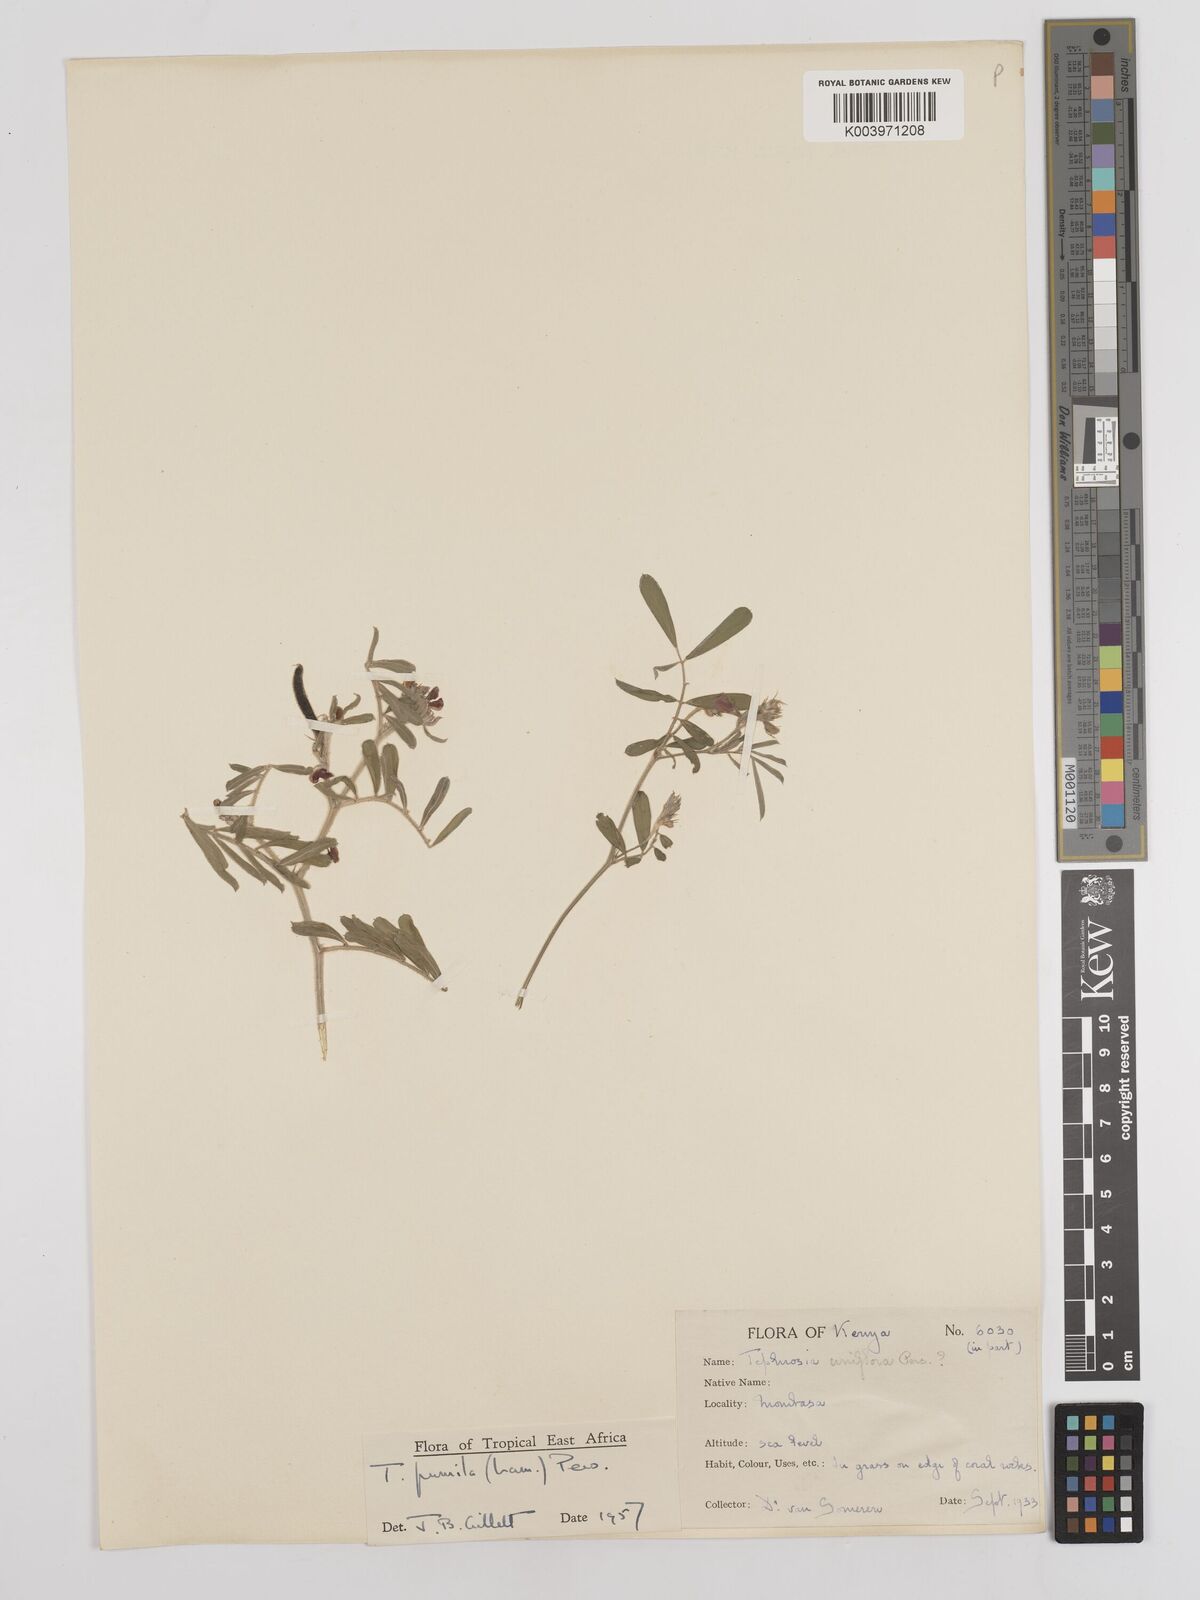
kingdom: Plantae
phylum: Tracheophyta
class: Magnoliopsida
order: Fabales
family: Fabaceae
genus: Tephrosia
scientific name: Tephrosia pumila
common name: Indigo sauvage
